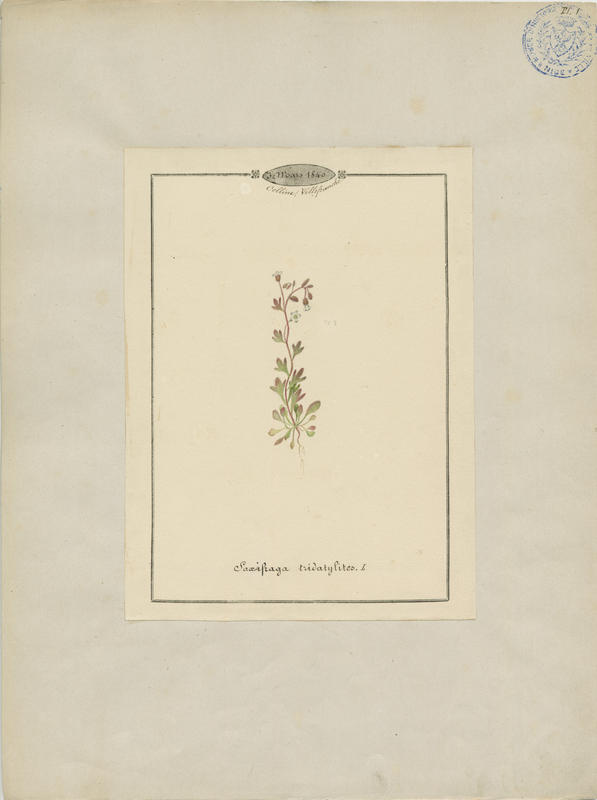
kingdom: Plantae
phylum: Tracheophyta
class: Magnoliopsida
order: Saxifragales
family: Saxifragaceae
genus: Saxifraga
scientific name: Saxifraga tridactylites
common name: Rue-leaved saxifrage
